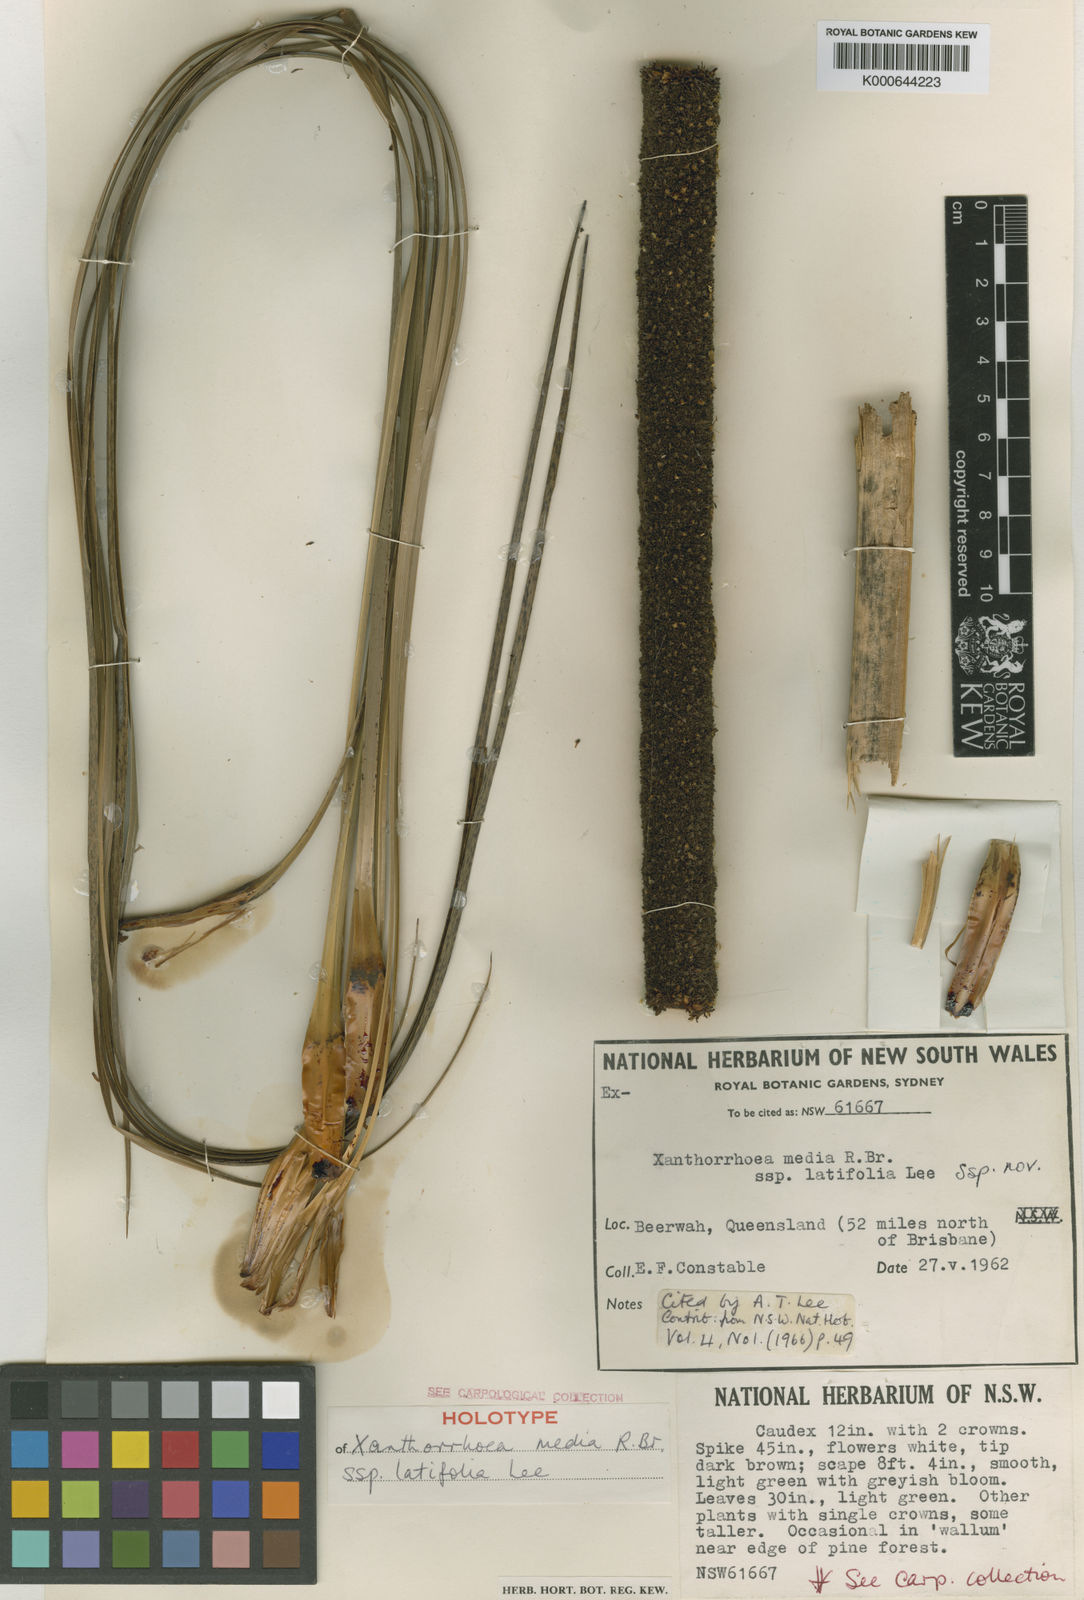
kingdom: Plantae
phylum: Tracheophyta
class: Liliopsida
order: Asparagales
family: Asphodelaceae
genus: Xanthorrhoea
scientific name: Xanthorrhoea latifolia
